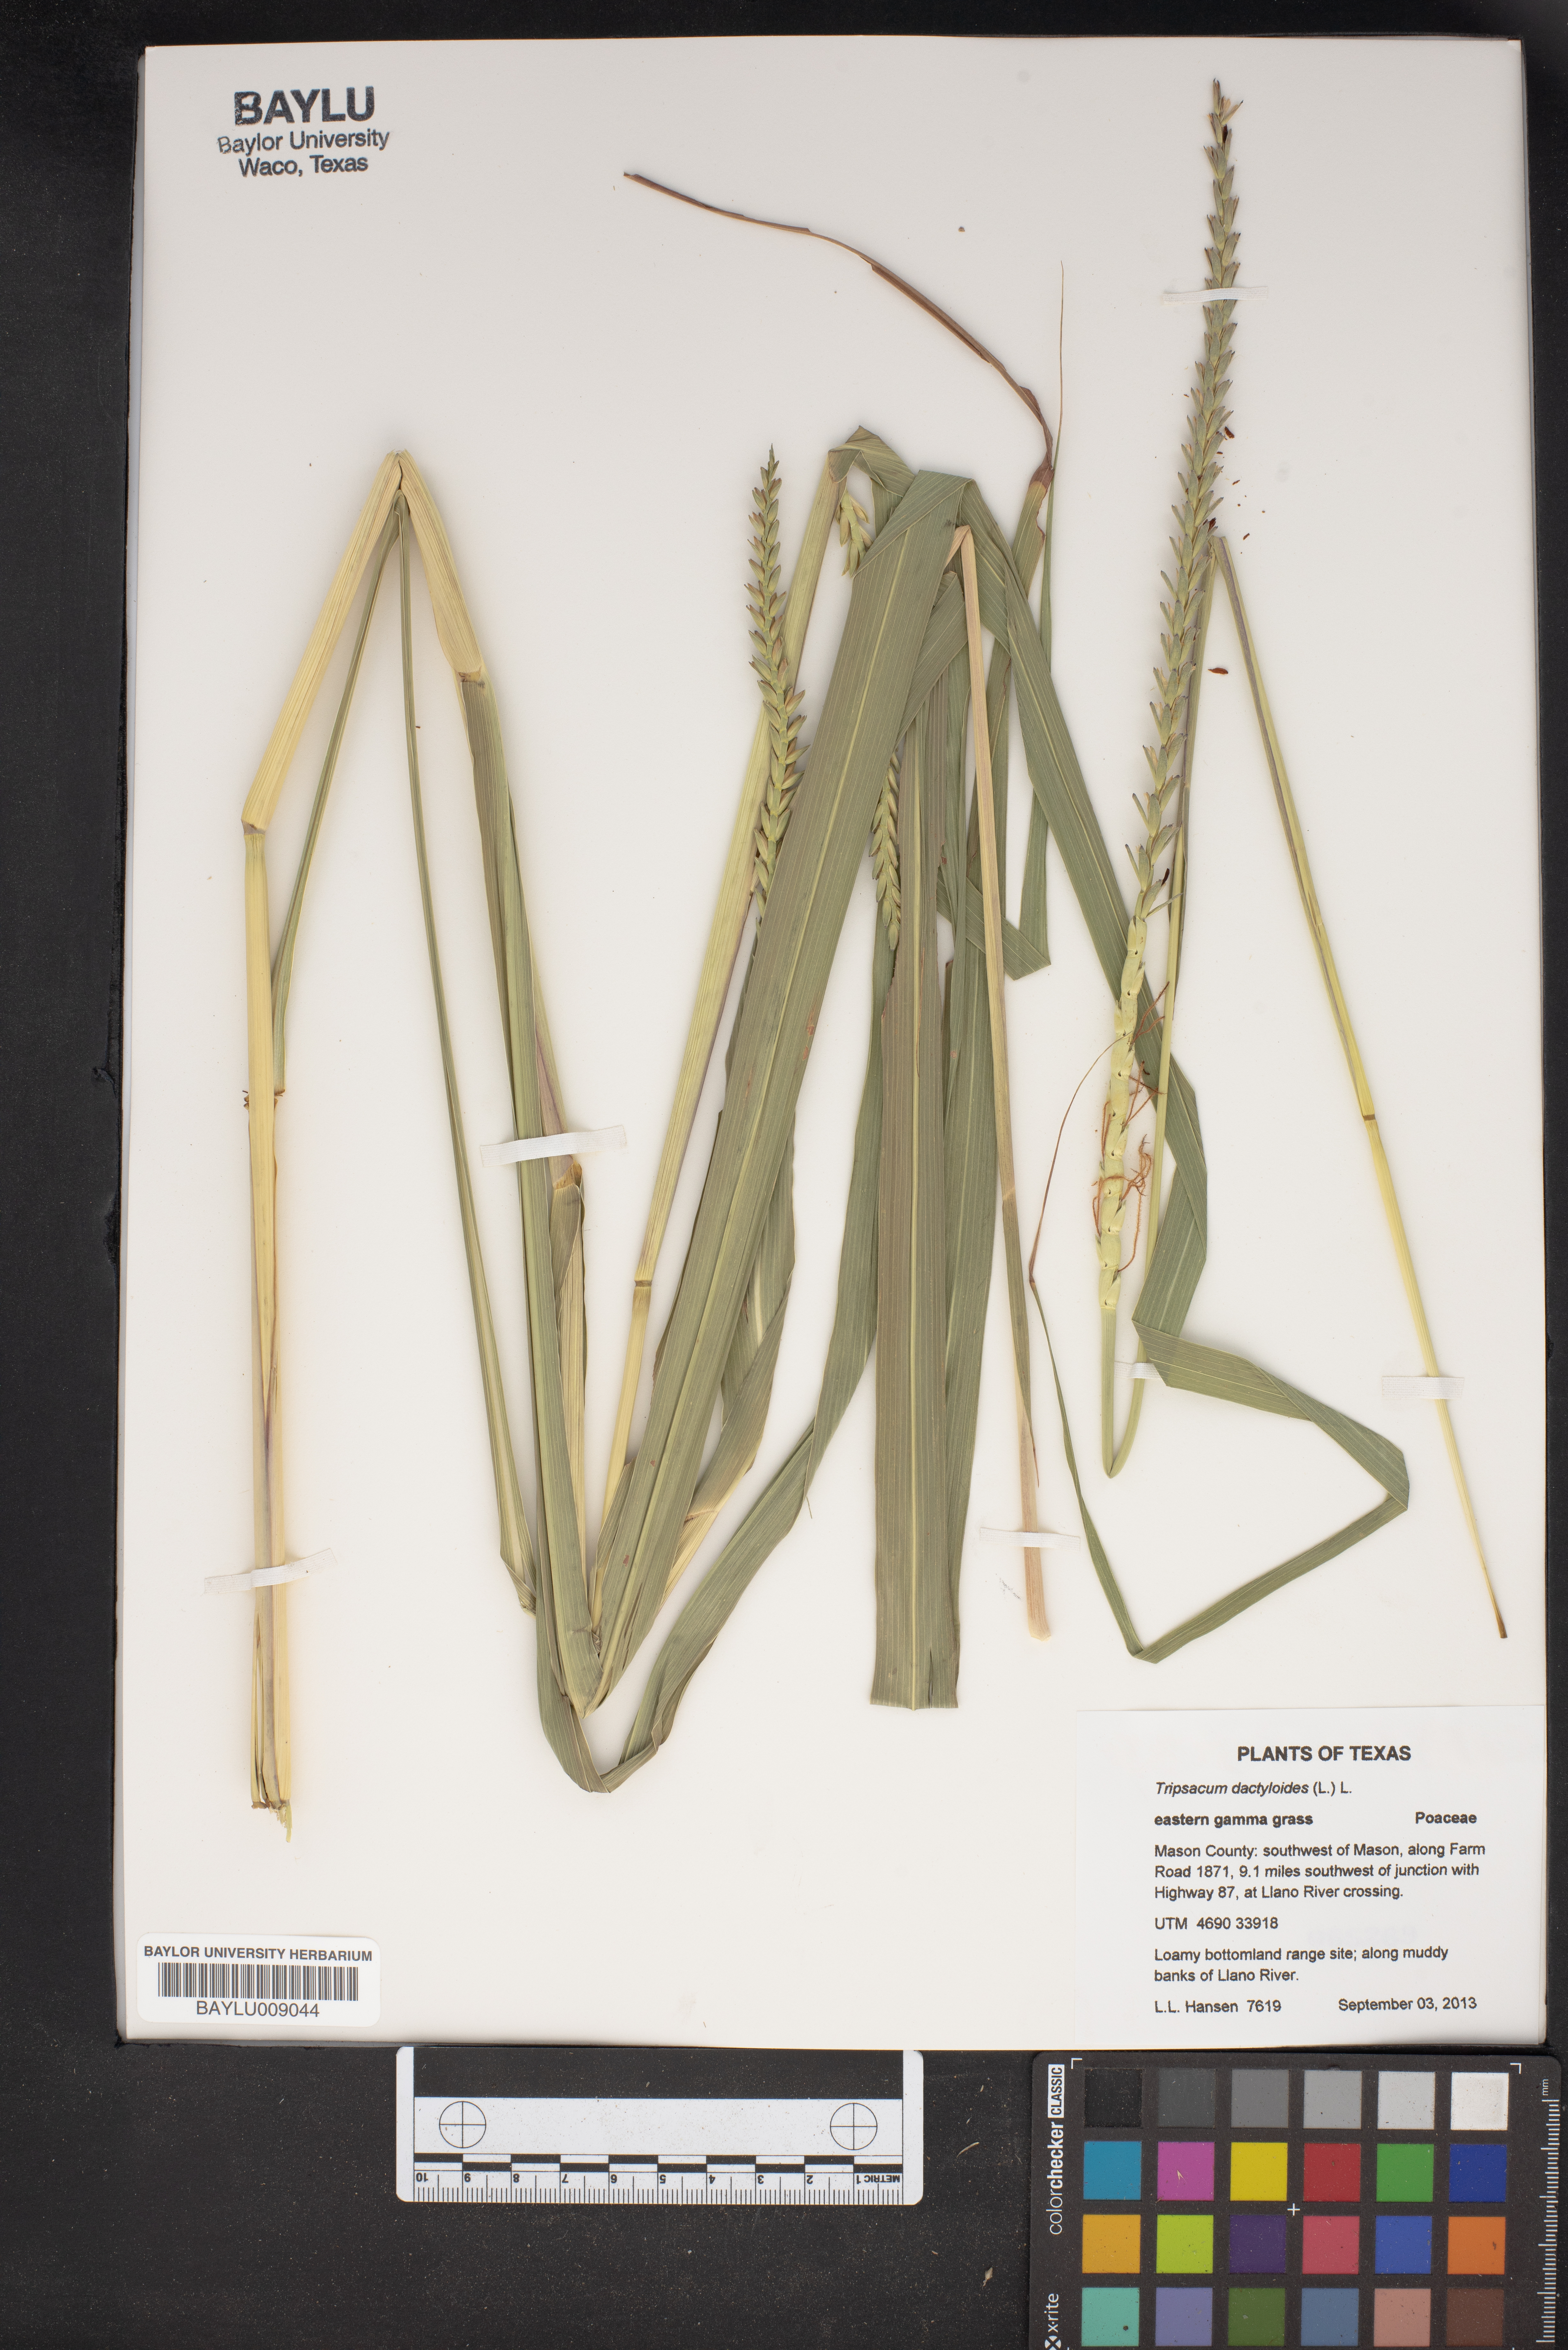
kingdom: Plantae
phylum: Tracheophyta
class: Liliopsida
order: Poales
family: Poaceae
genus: Tripsacum
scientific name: Tripsacum dactyloides
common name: Buffalo-grass
